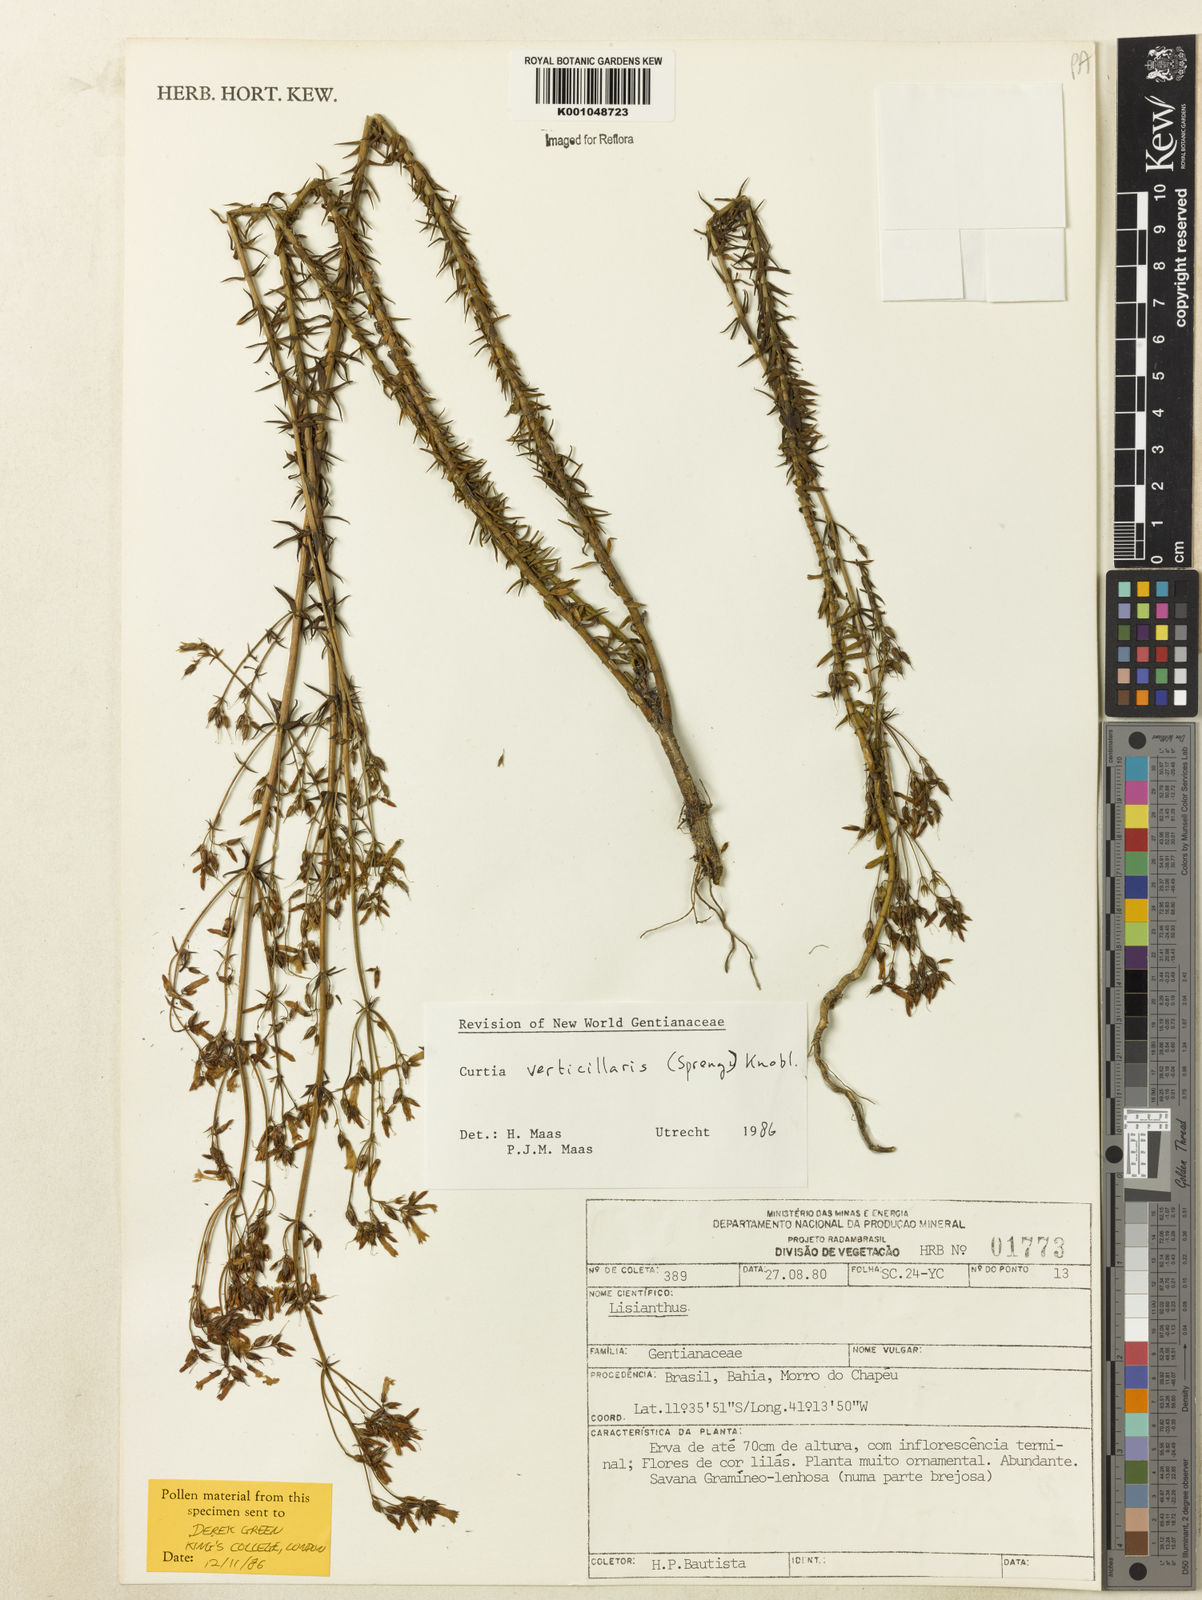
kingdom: Plantae
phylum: Tracheophyta
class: Magnoliopsida
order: Gentianales
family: Gentianaceae
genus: Curtia
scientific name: Curtia verticillaris
